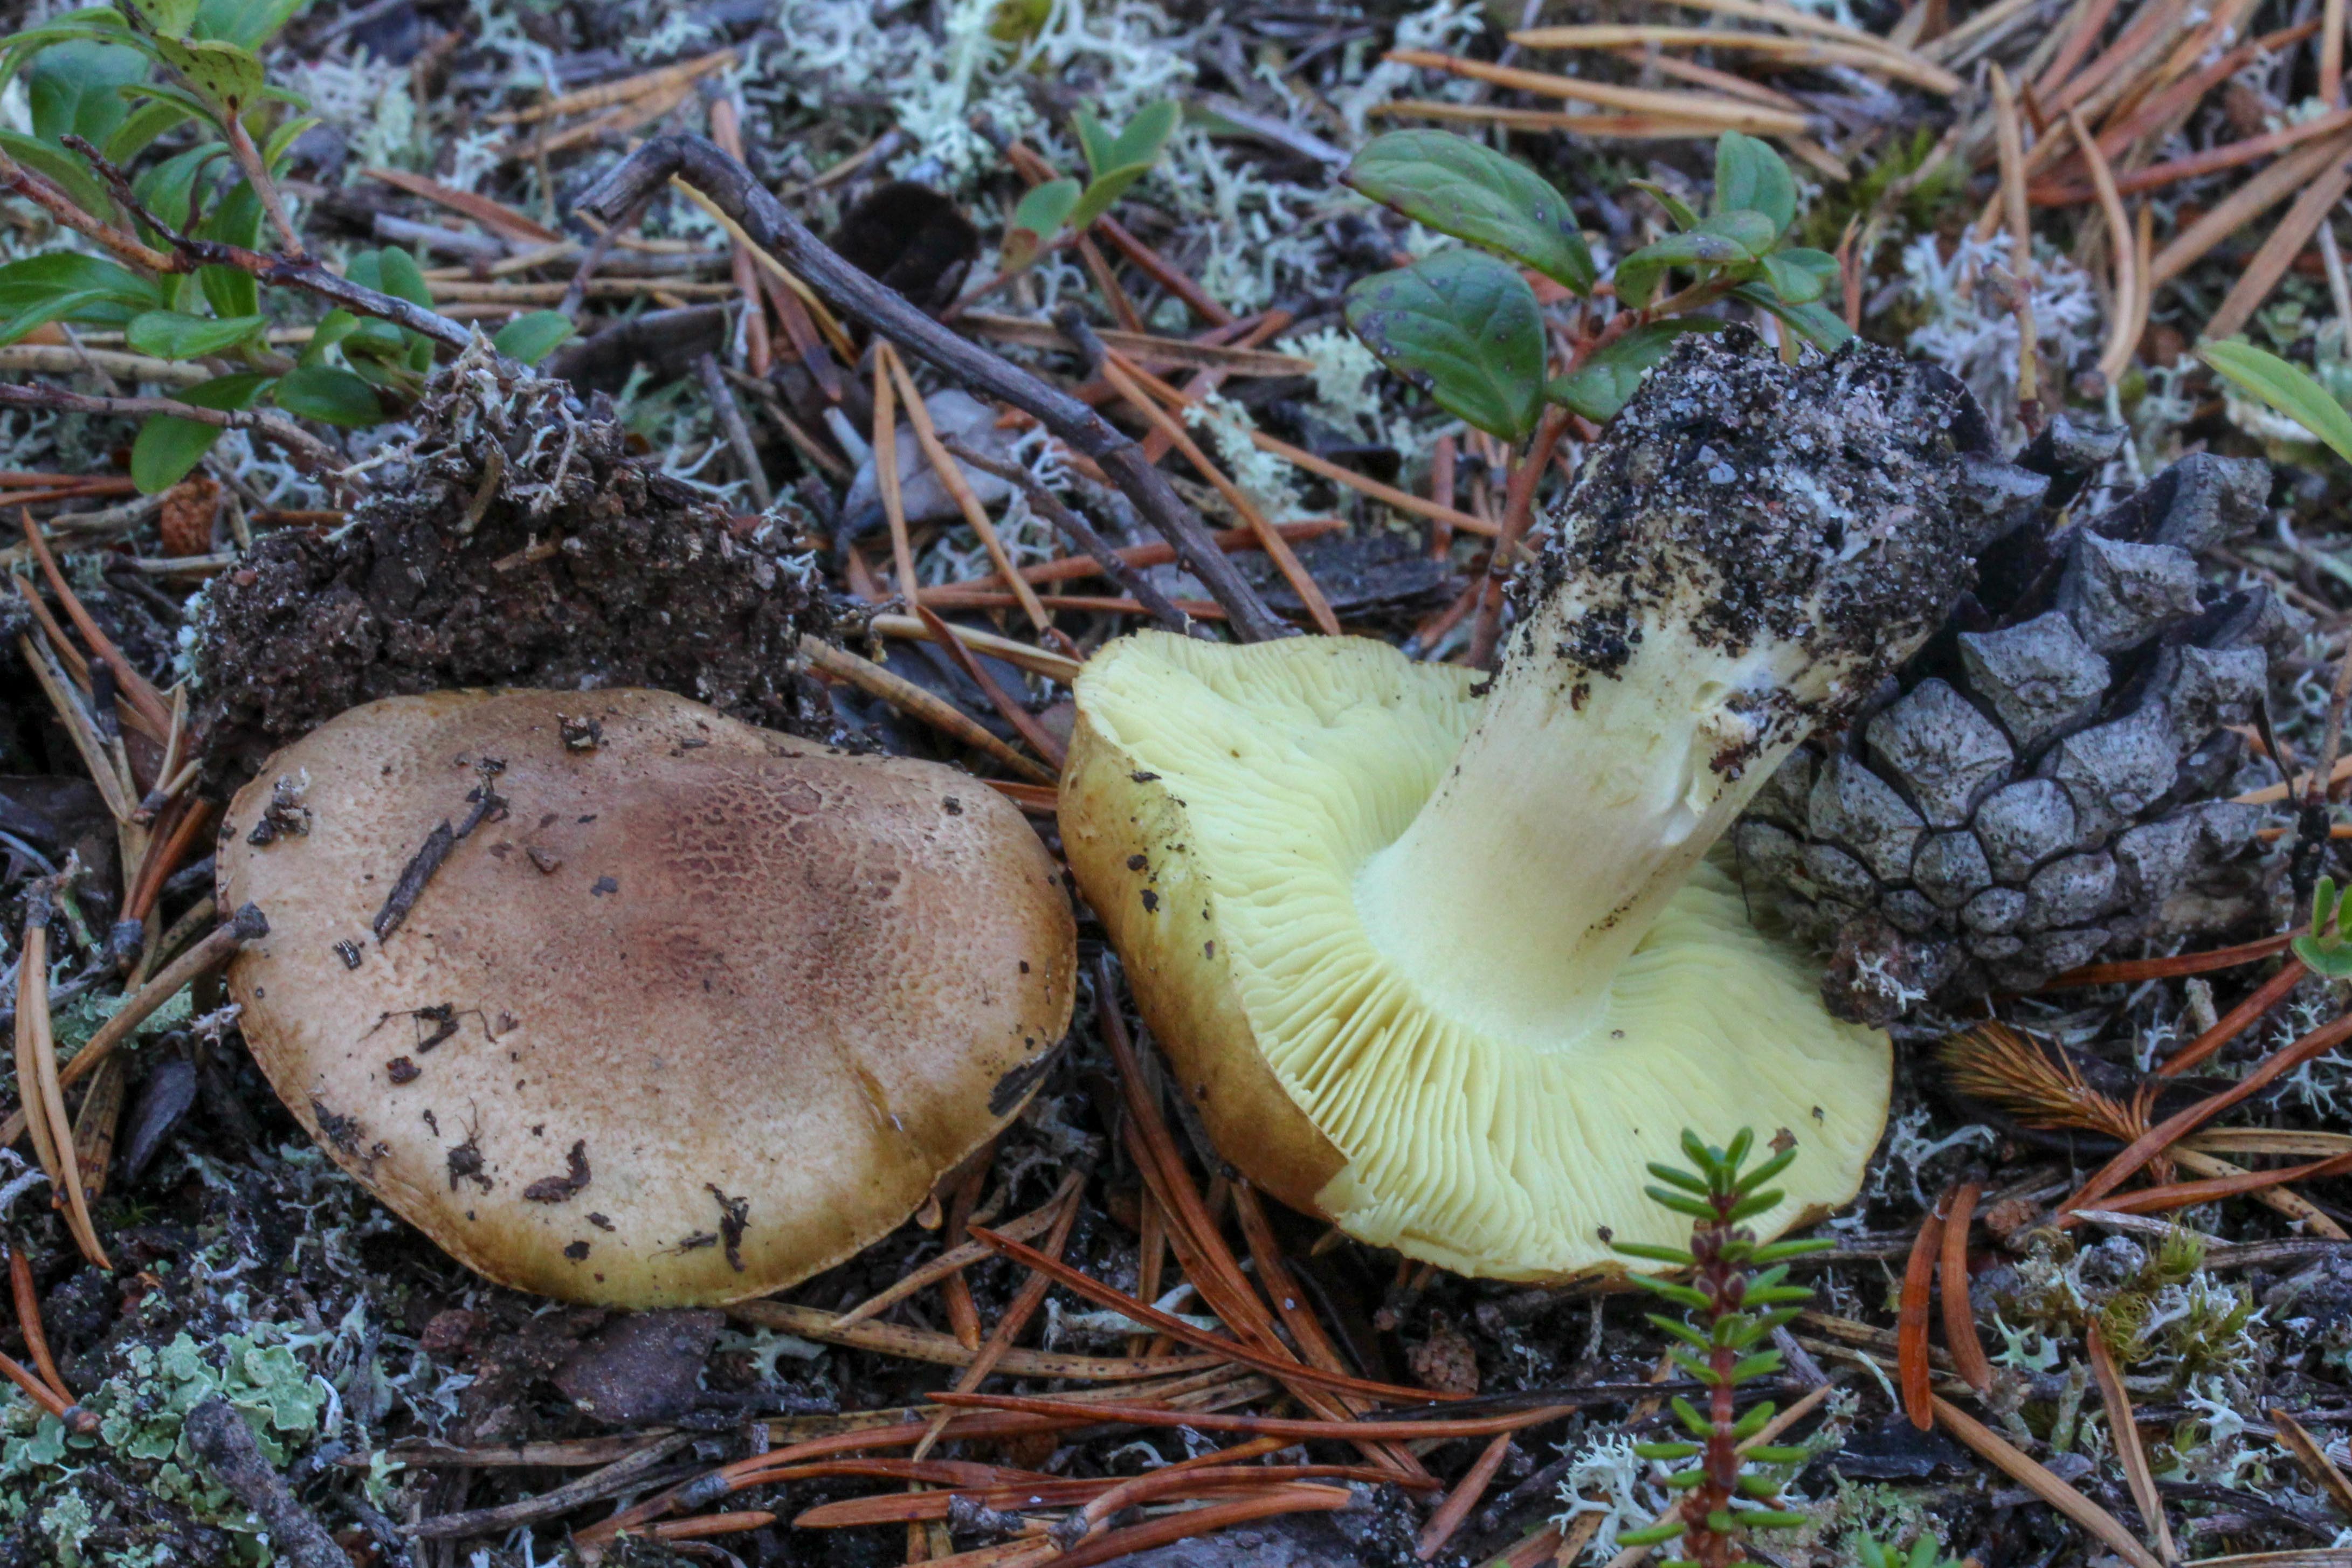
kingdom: Fungi
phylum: Basidiomycota
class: Agaricomycetes
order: Agaricales
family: Tricholomataceae
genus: Tricholoma
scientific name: Tricholoma equestre
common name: Yellow knight
